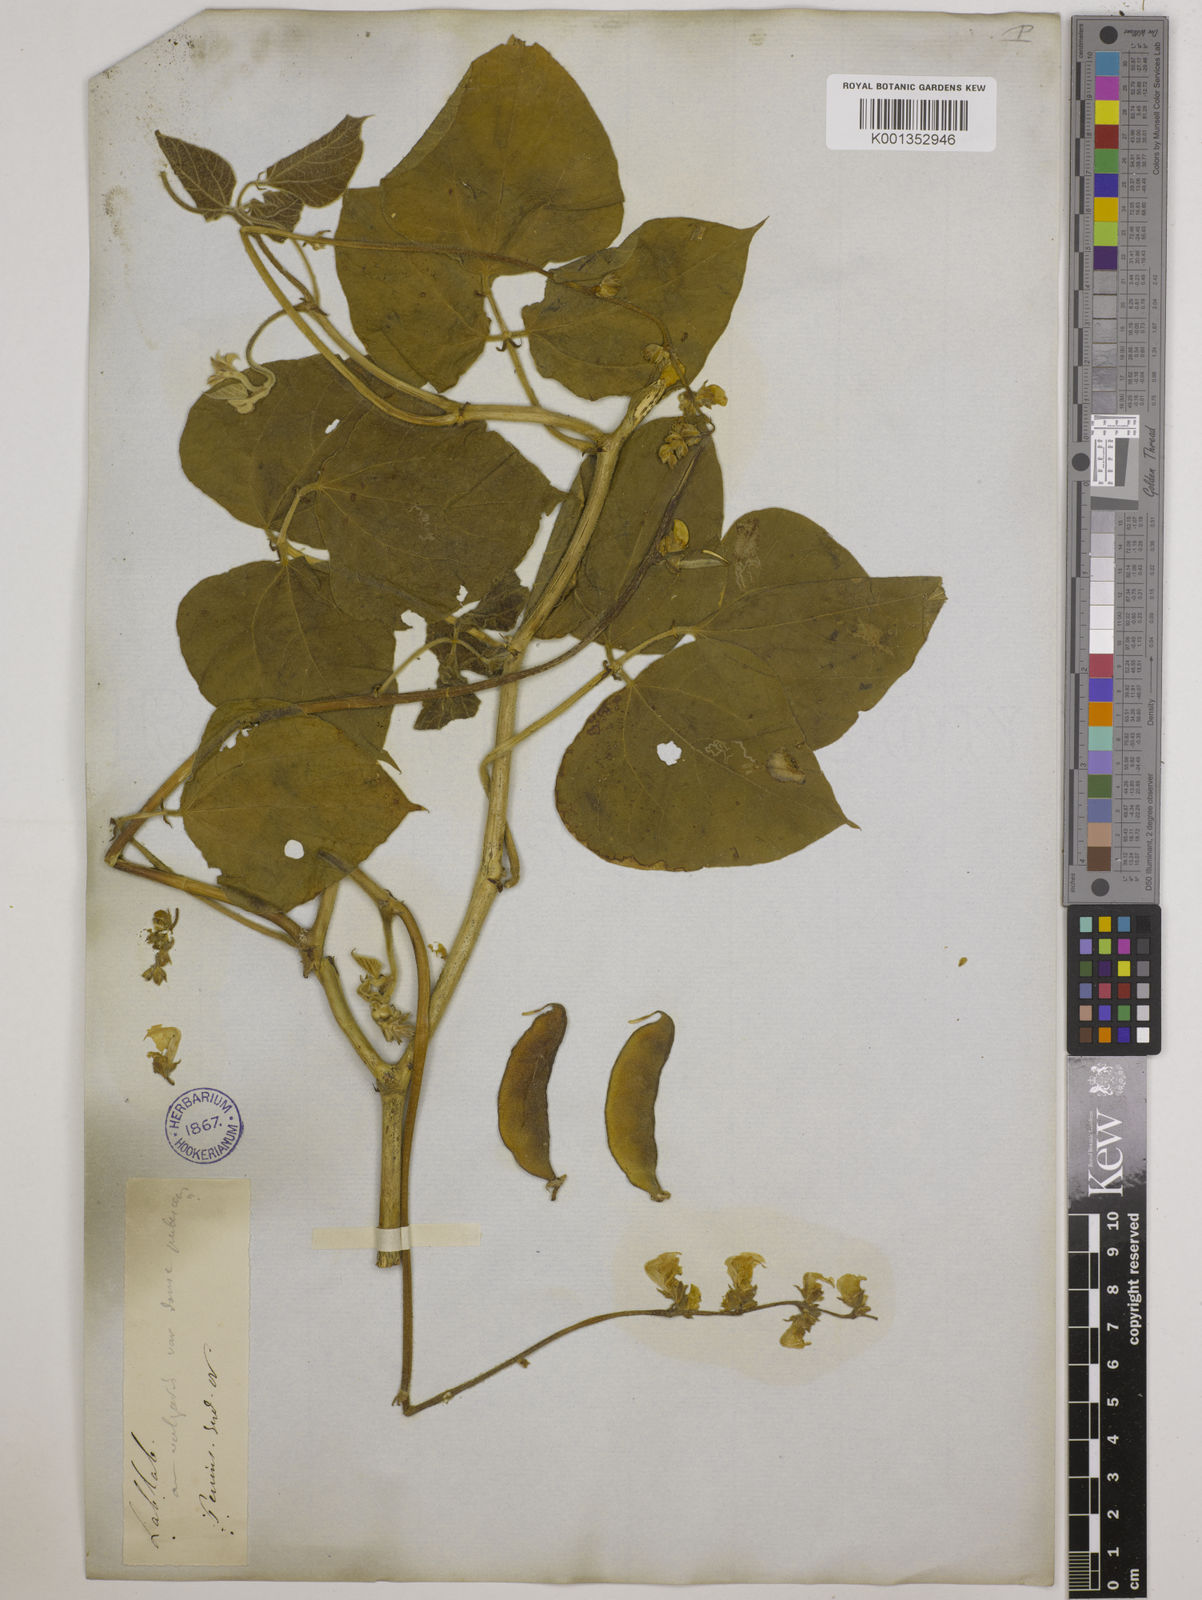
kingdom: Plantae
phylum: Tracheophyta
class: Magnoliopsida
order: Fabales
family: Fabaceae
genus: Lablab
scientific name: Lablab purpureus
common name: Lablab-bean
